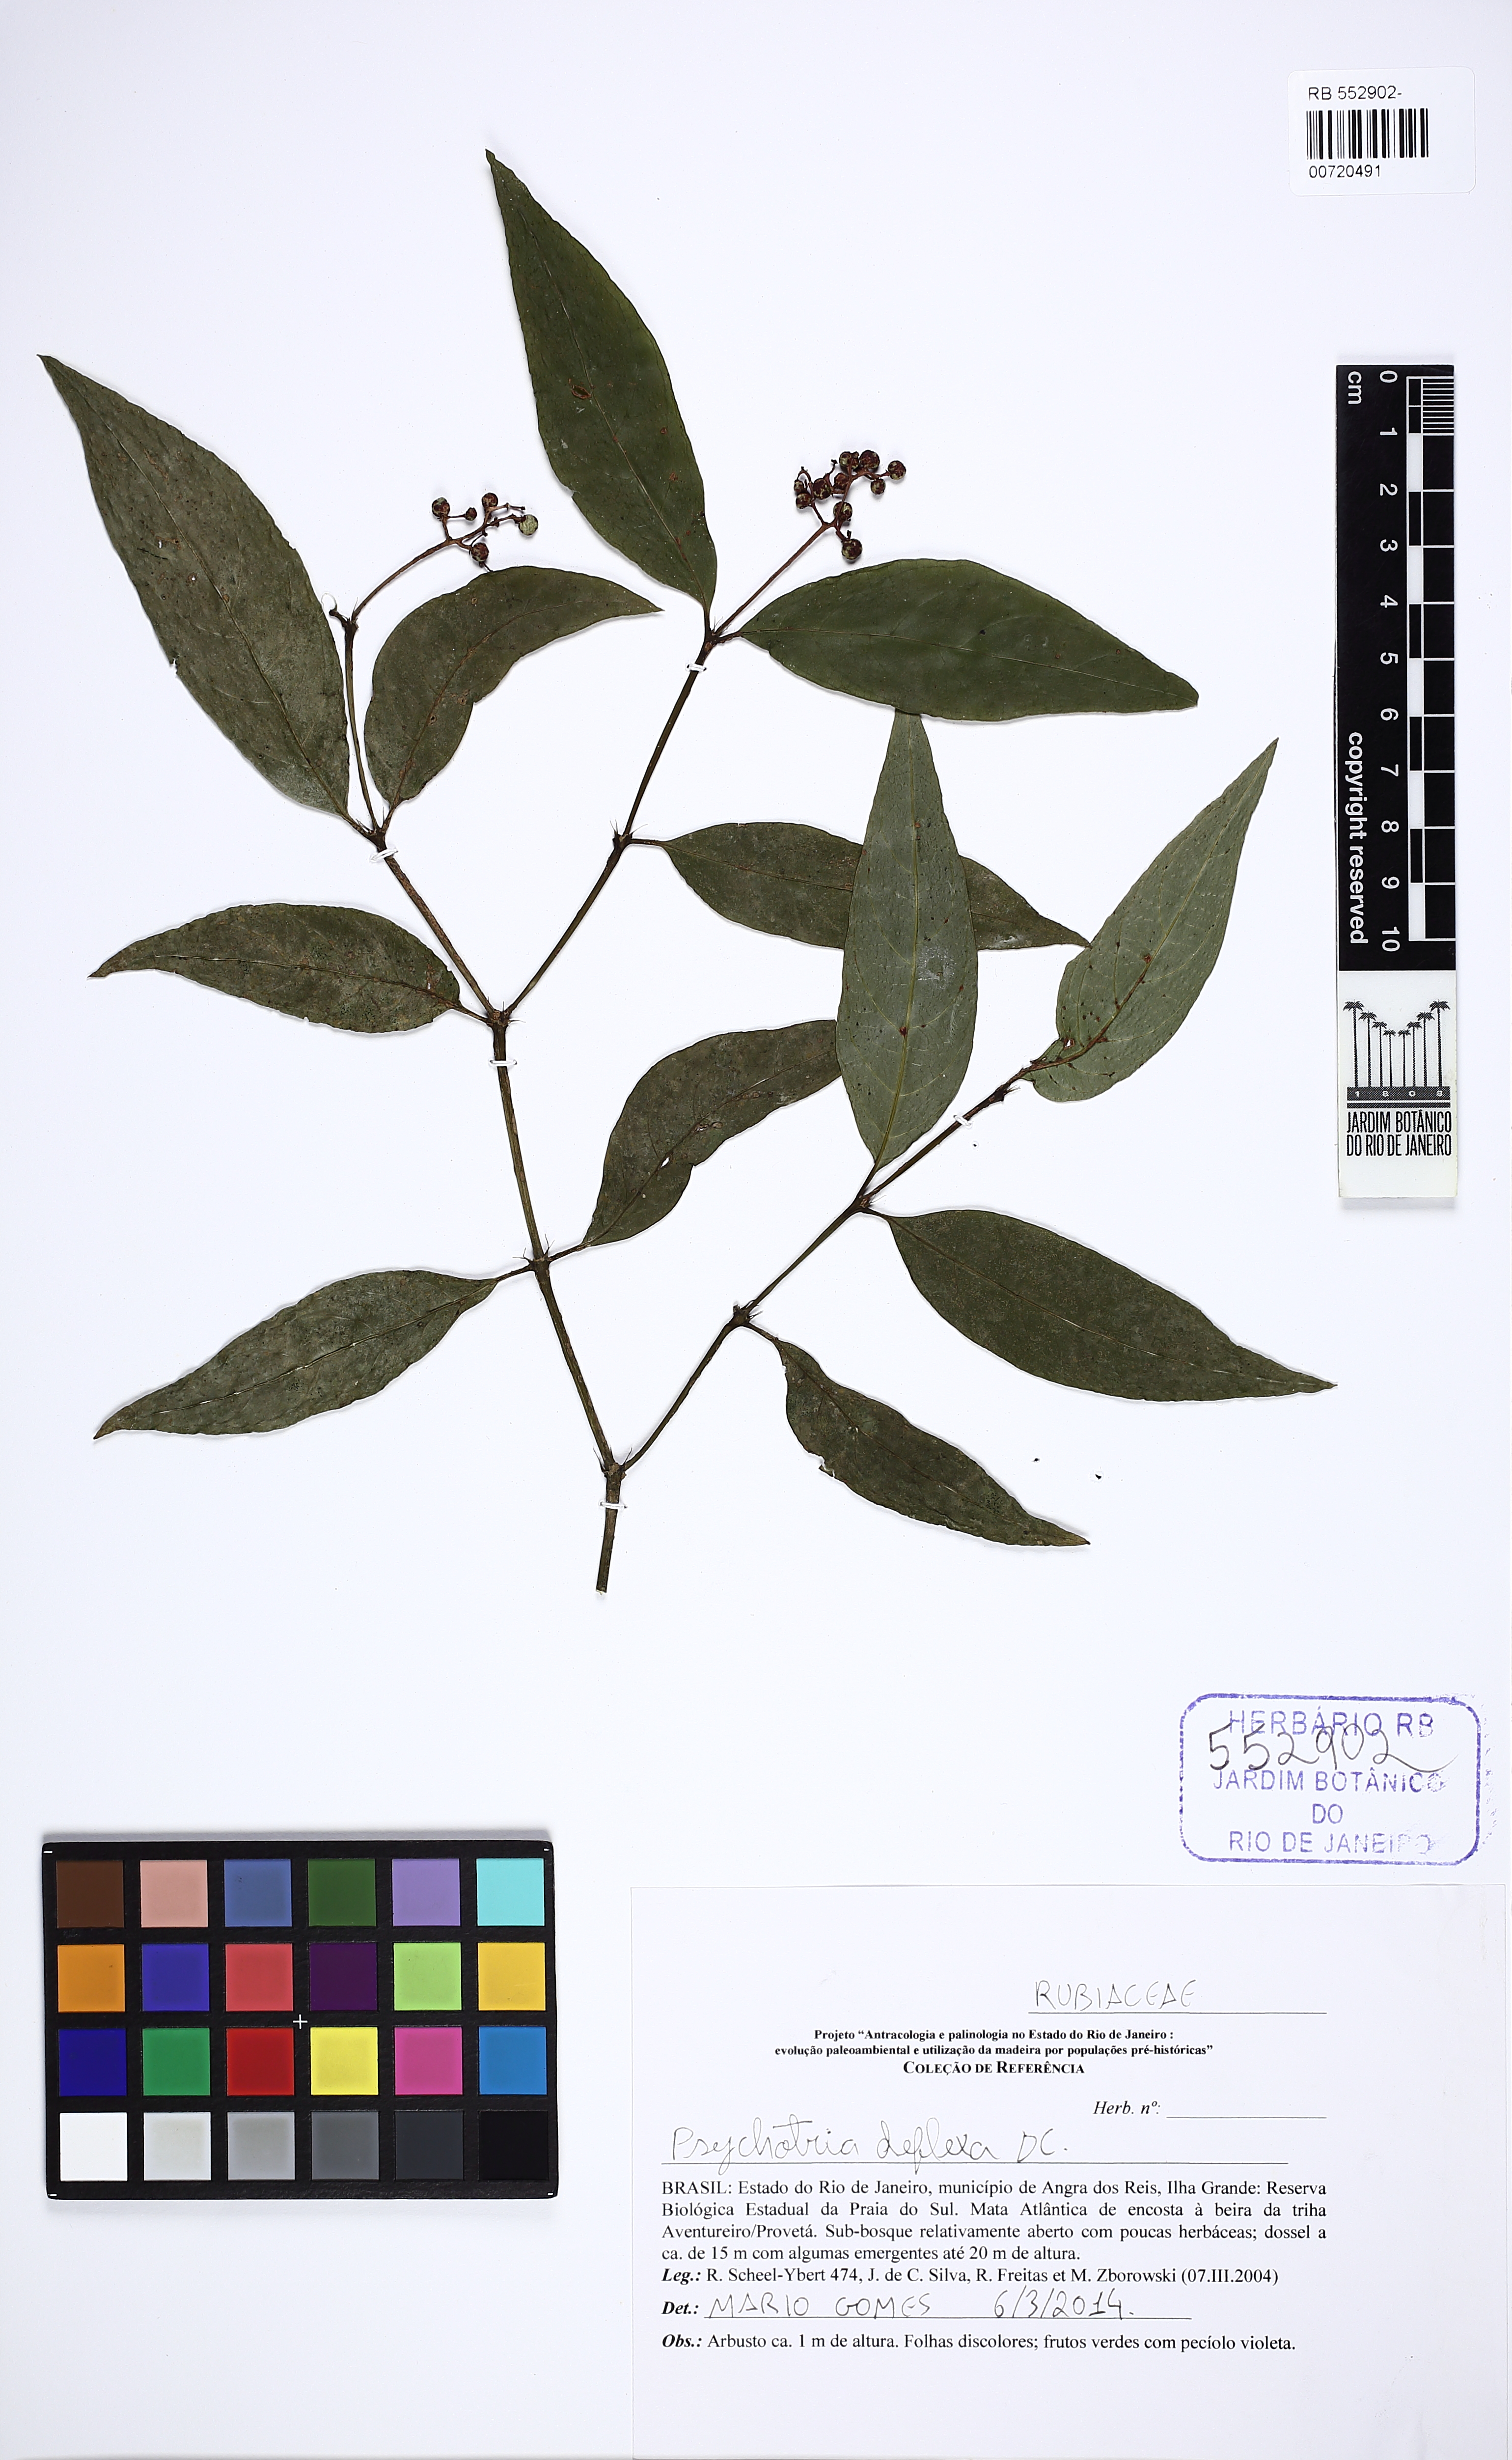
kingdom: Plantae
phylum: Tracheophyta
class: Magnoliopsida
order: Gentianales
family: Rubiaceae
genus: Palicourea
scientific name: Palicourea deflexa
